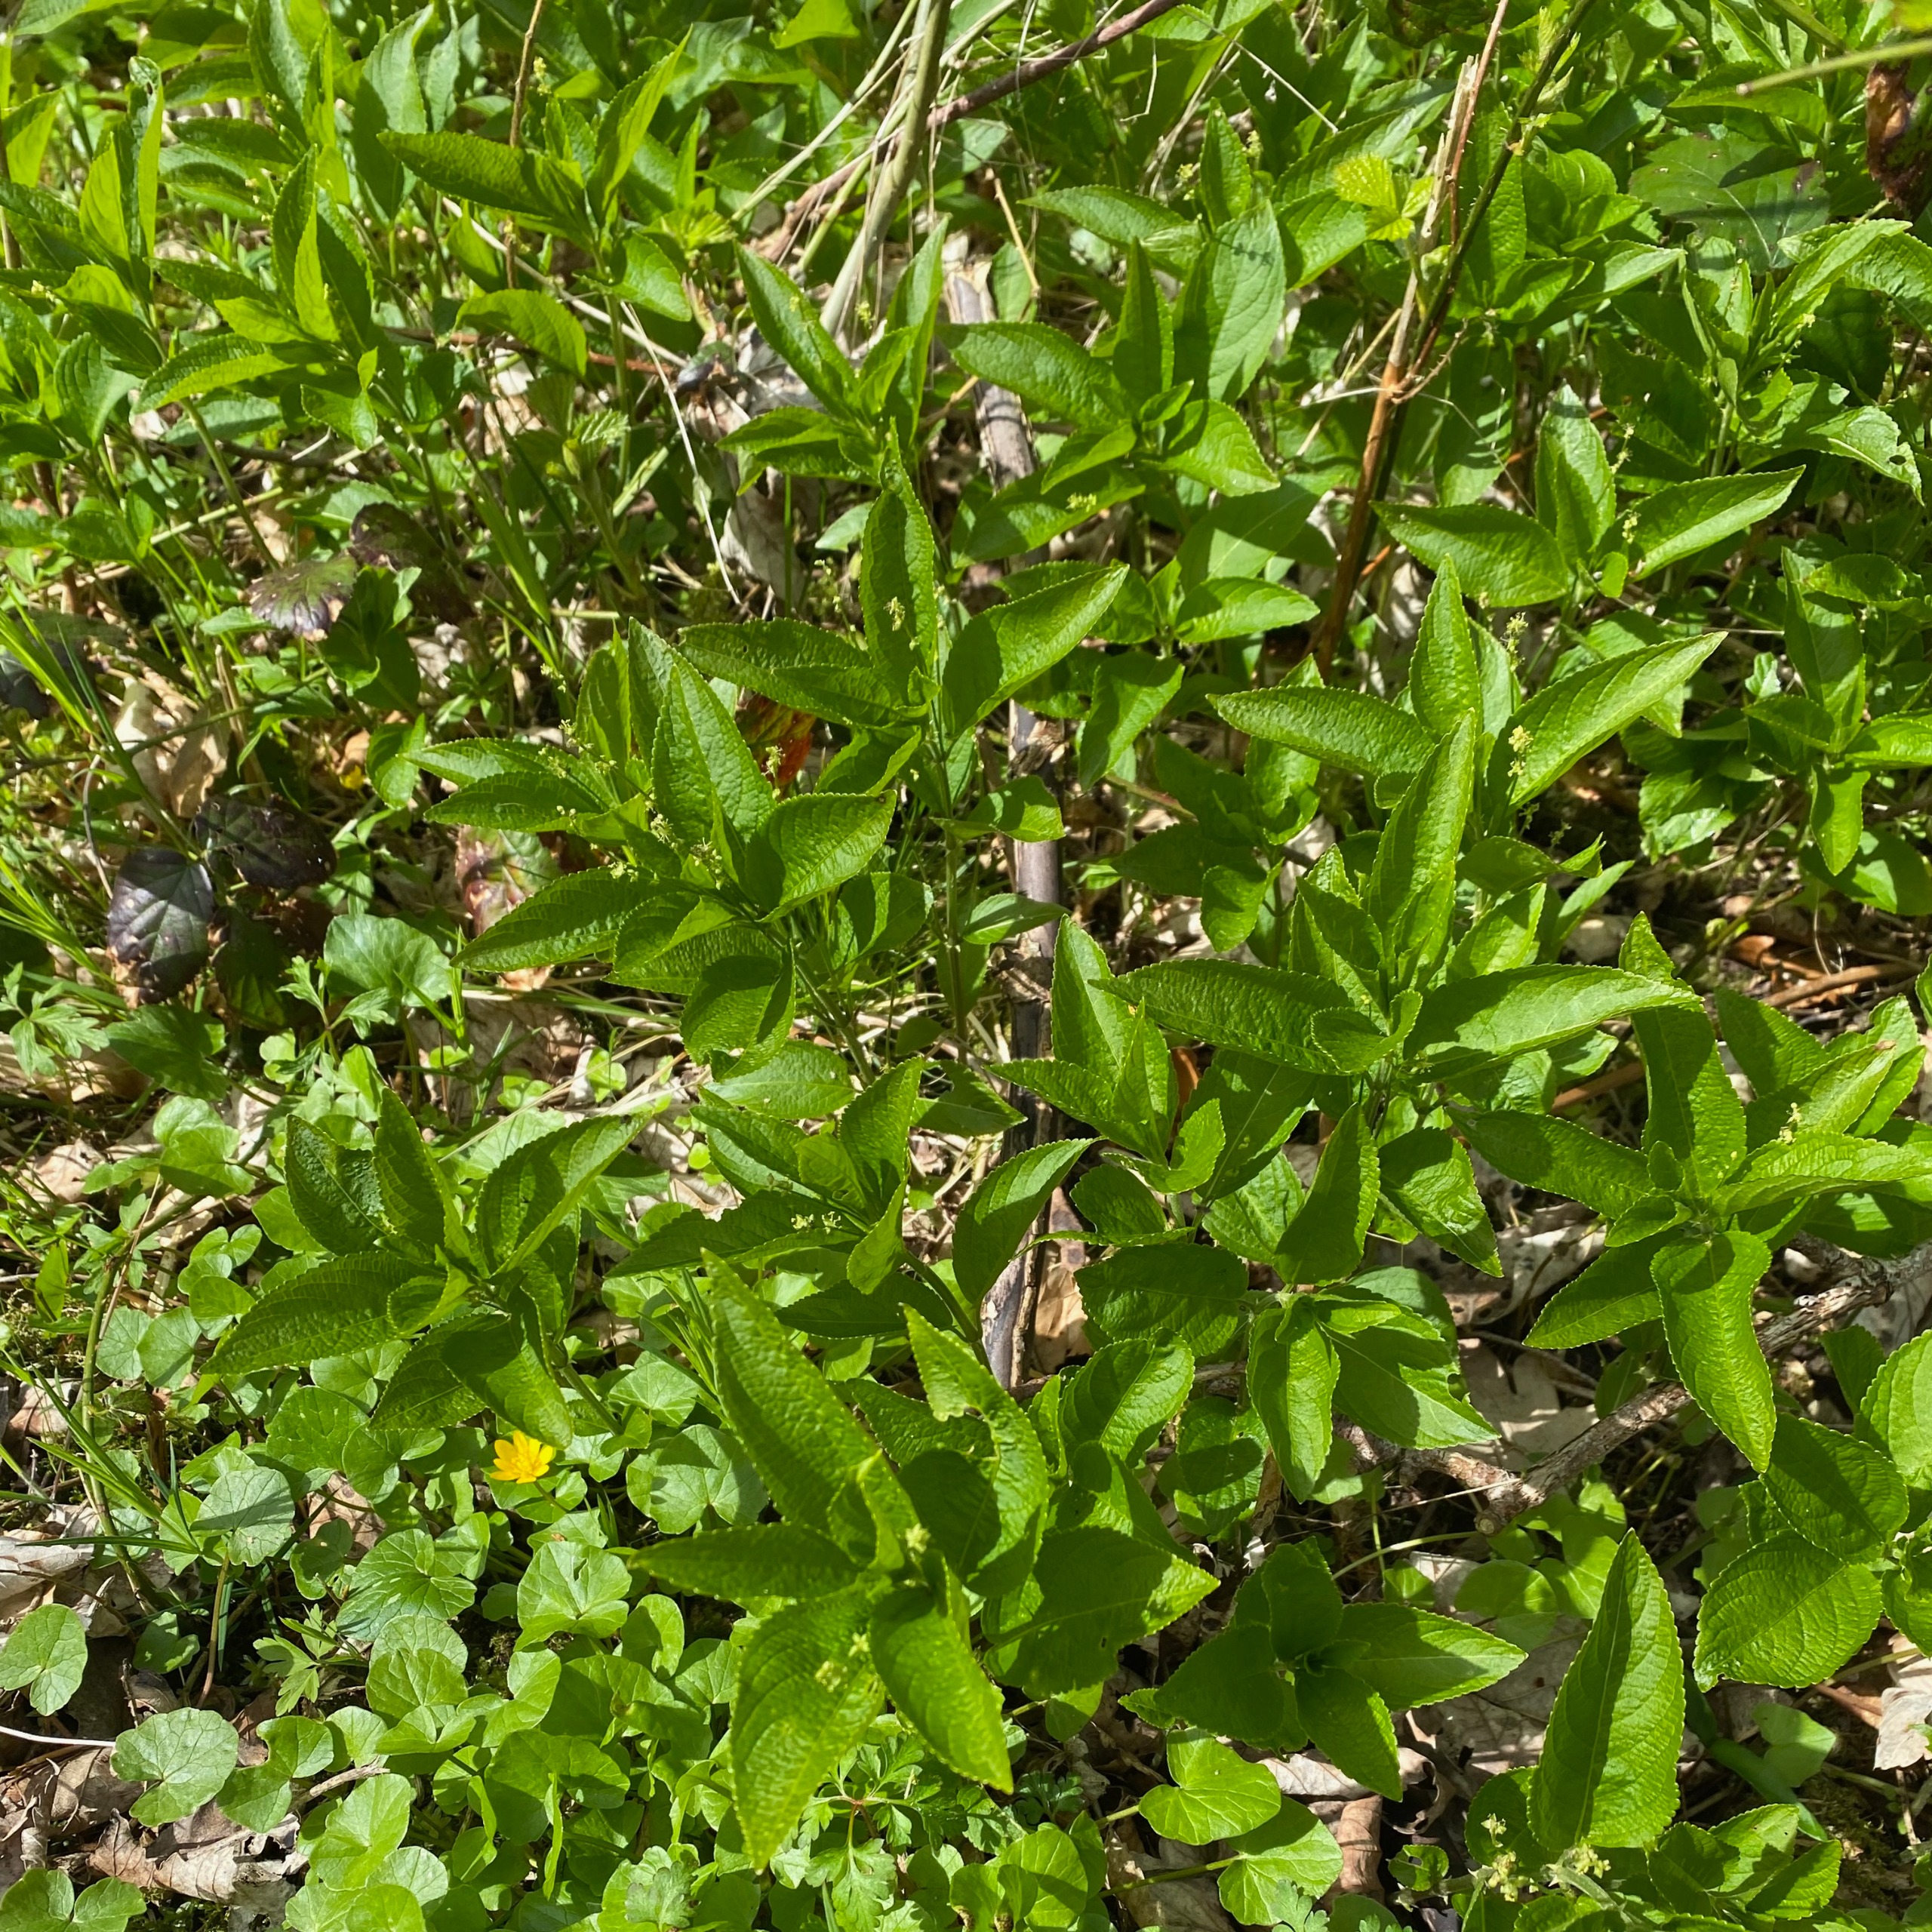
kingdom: Plantae
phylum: Tracheophyta
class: Magnoliopsida
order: Malpighiales
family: Euphorbiaceae
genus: Mercurialis
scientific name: Mercurialis perennis
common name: Almindelig bingelurt
